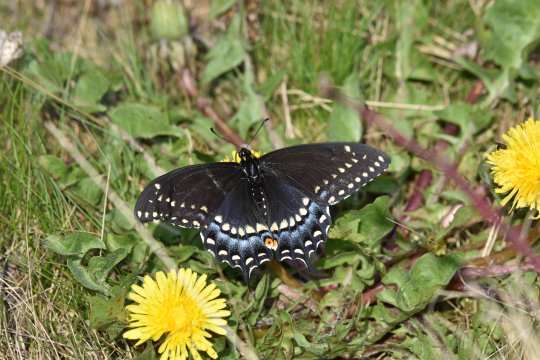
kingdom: Animalia
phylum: Arthropoda
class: Insecta
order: Lepidoptera
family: Papilionidae
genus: Papilio
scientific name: Papilio polyxenes
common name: Black Swallowtail
